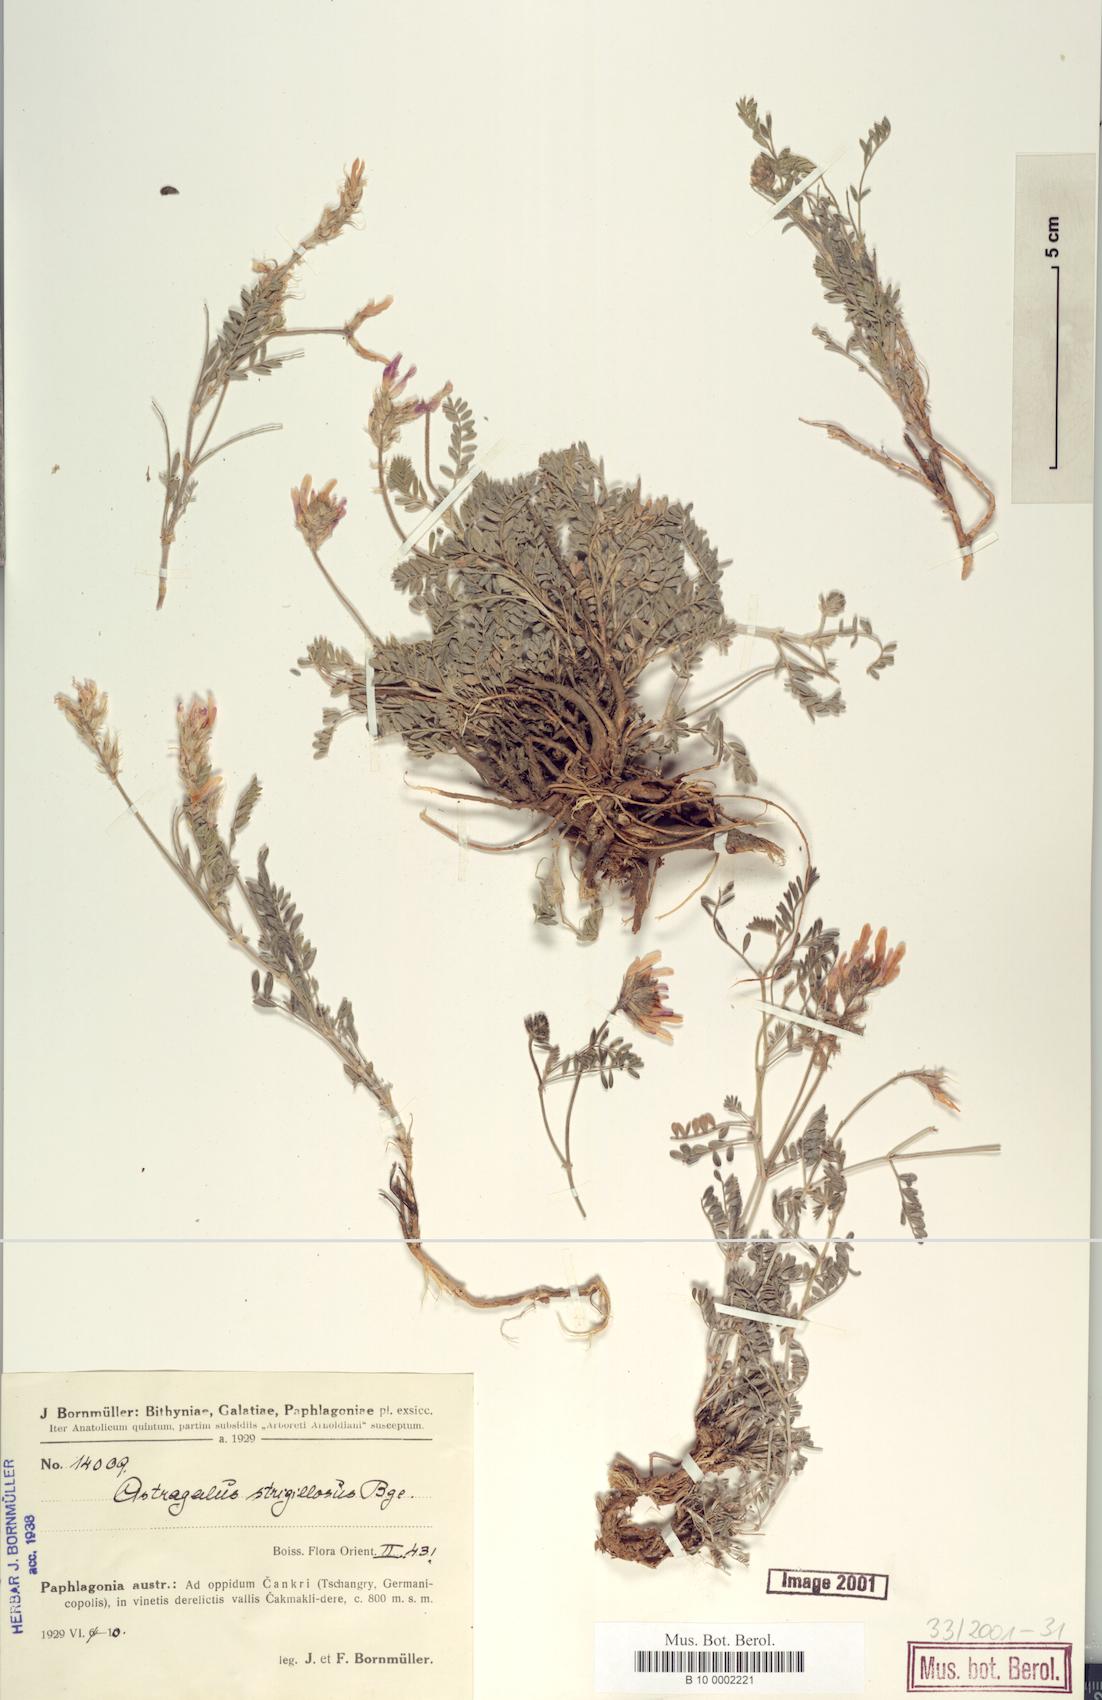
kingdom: Plantae
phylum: Tracheophyta
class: Magnoliopsida
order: Fabales
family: Fabaceae
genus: Astragalus
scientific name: Astragalus strigillosus
